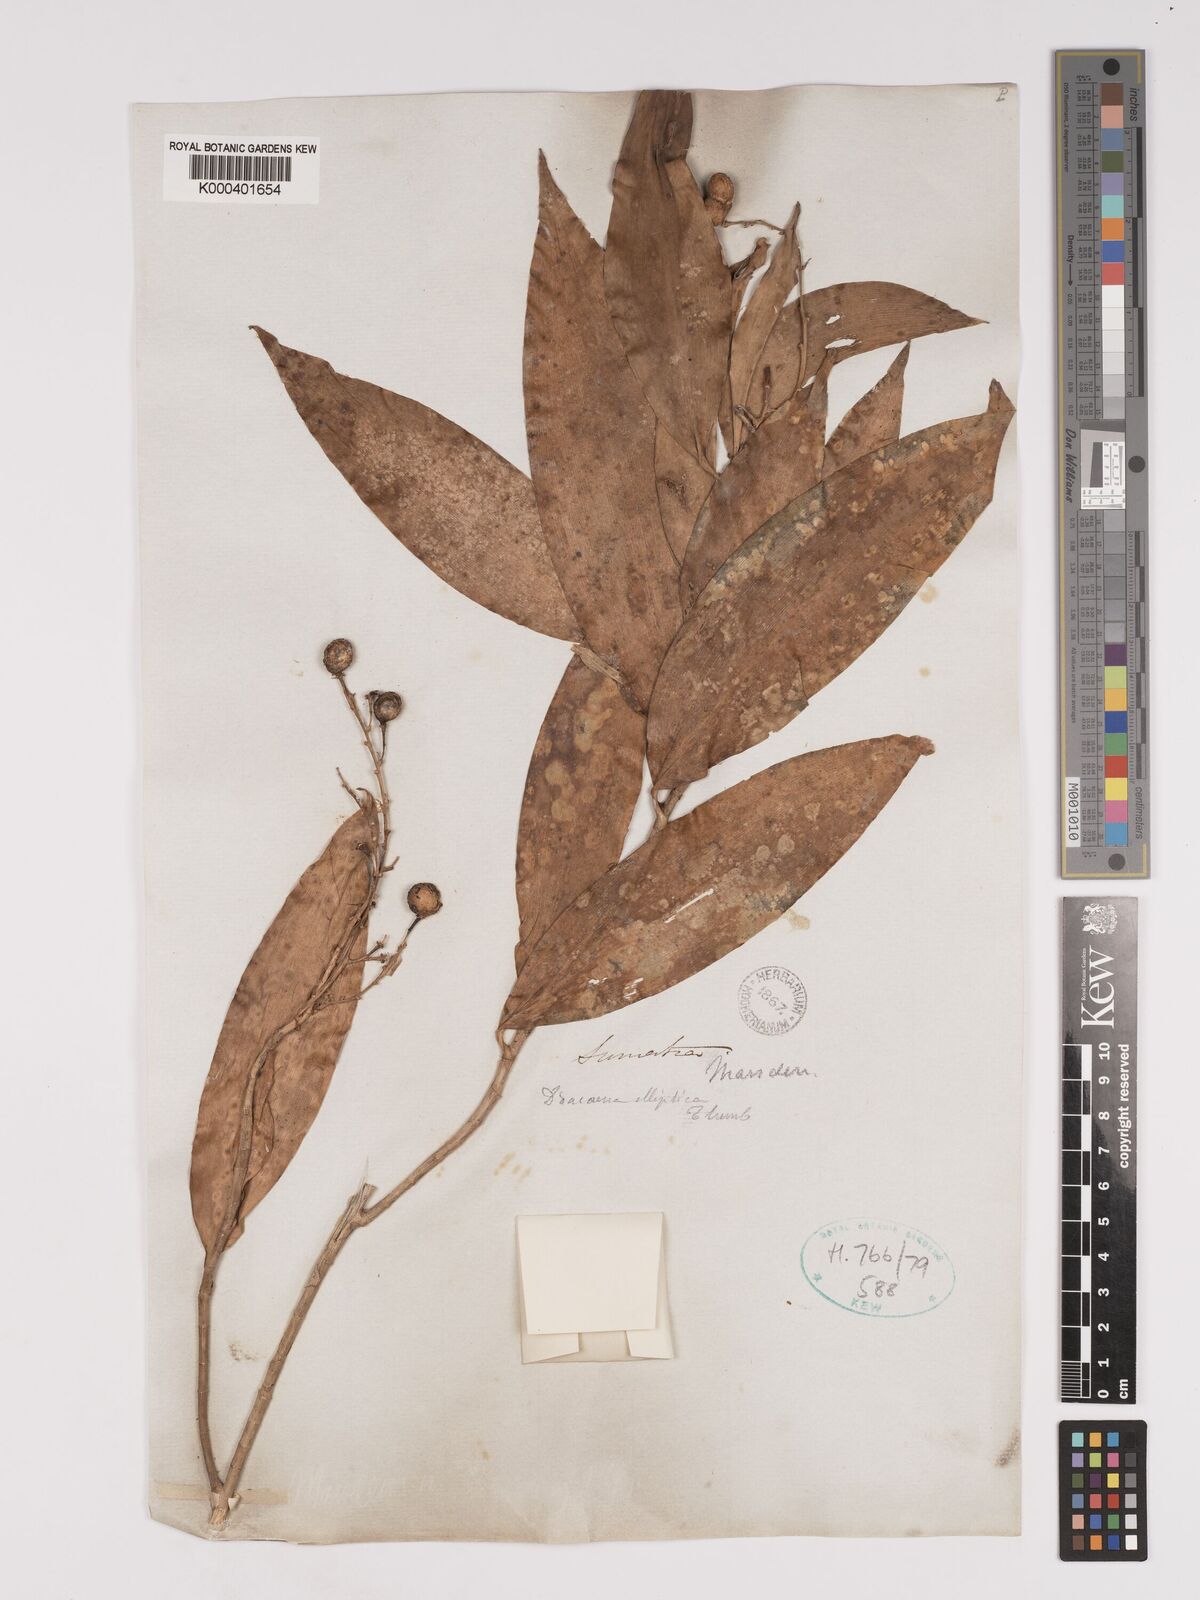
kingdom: Plantae
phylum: Tracheophyta
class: Liliopsida
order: Asparagales
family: Asparagaceae
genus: Dracaena
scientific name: Dracaena elliptica
